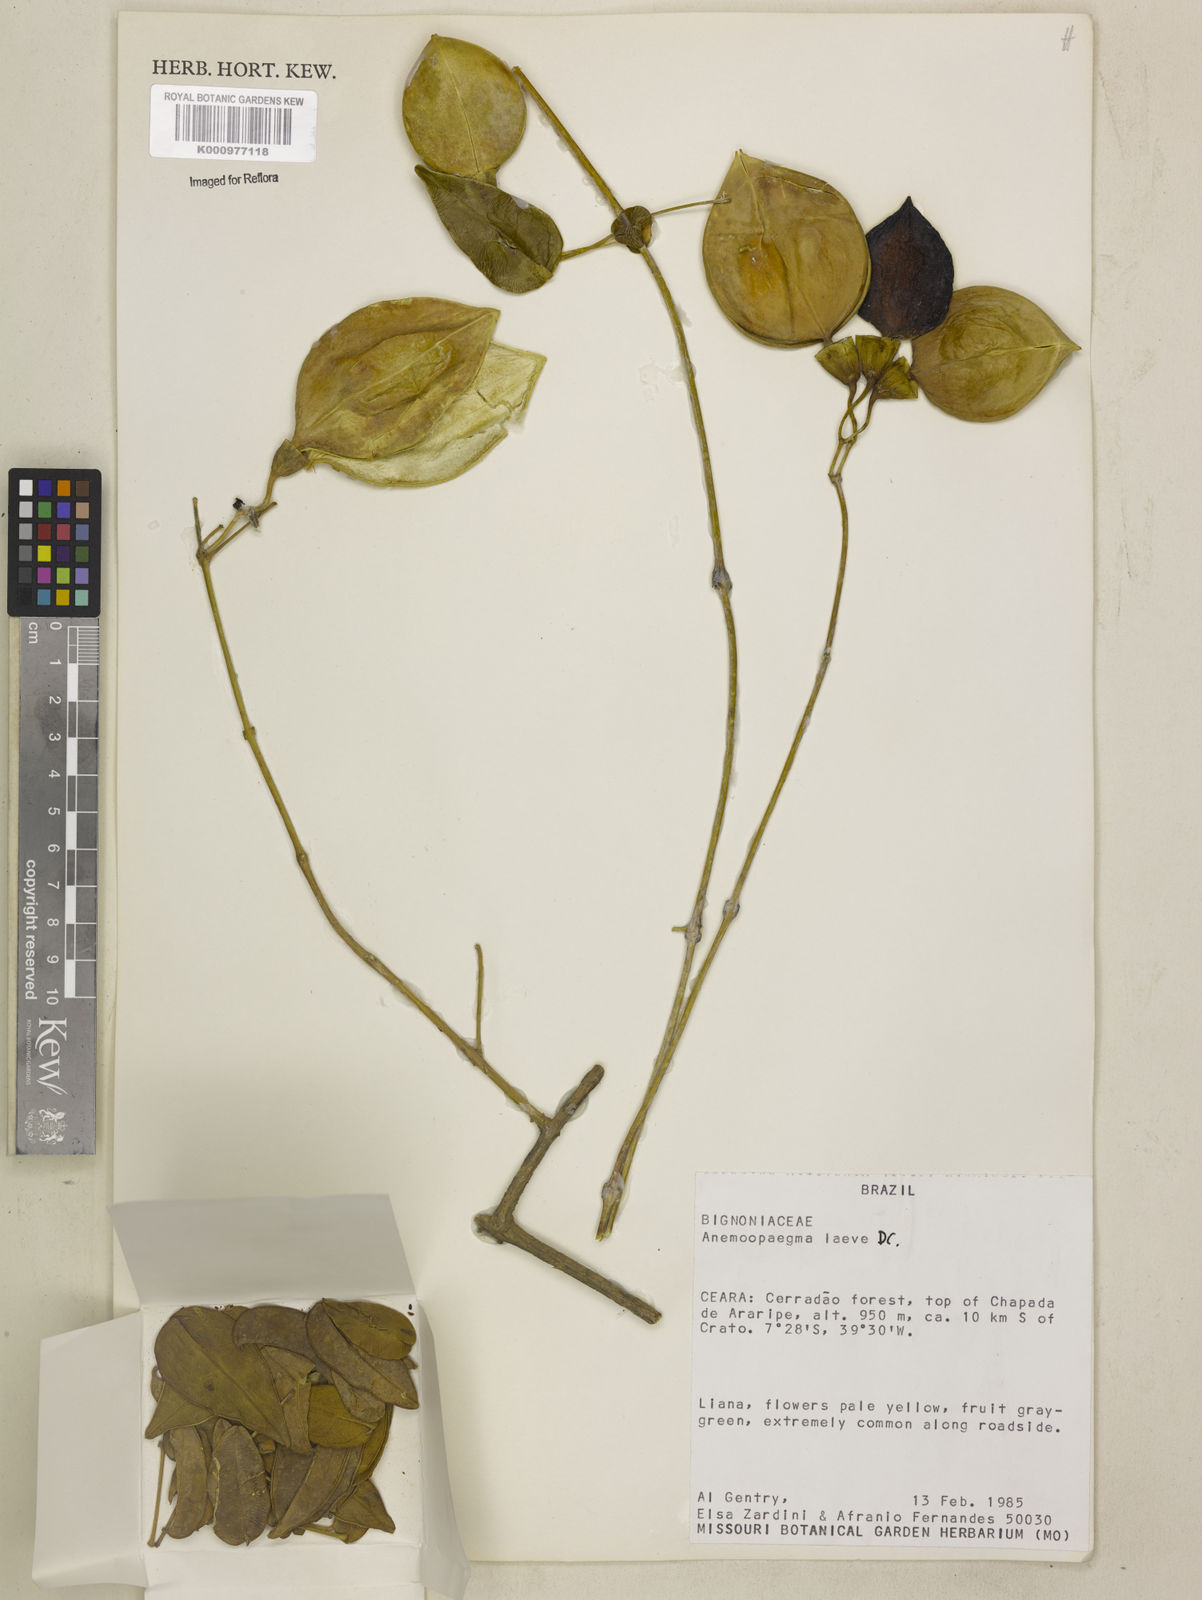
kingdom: Plantae
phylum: Tracheophyta
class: Magnoliopsida
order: Lamiales
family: Bignoniaceae
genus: Anemopaegma
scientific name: Anemopaegma laeve
